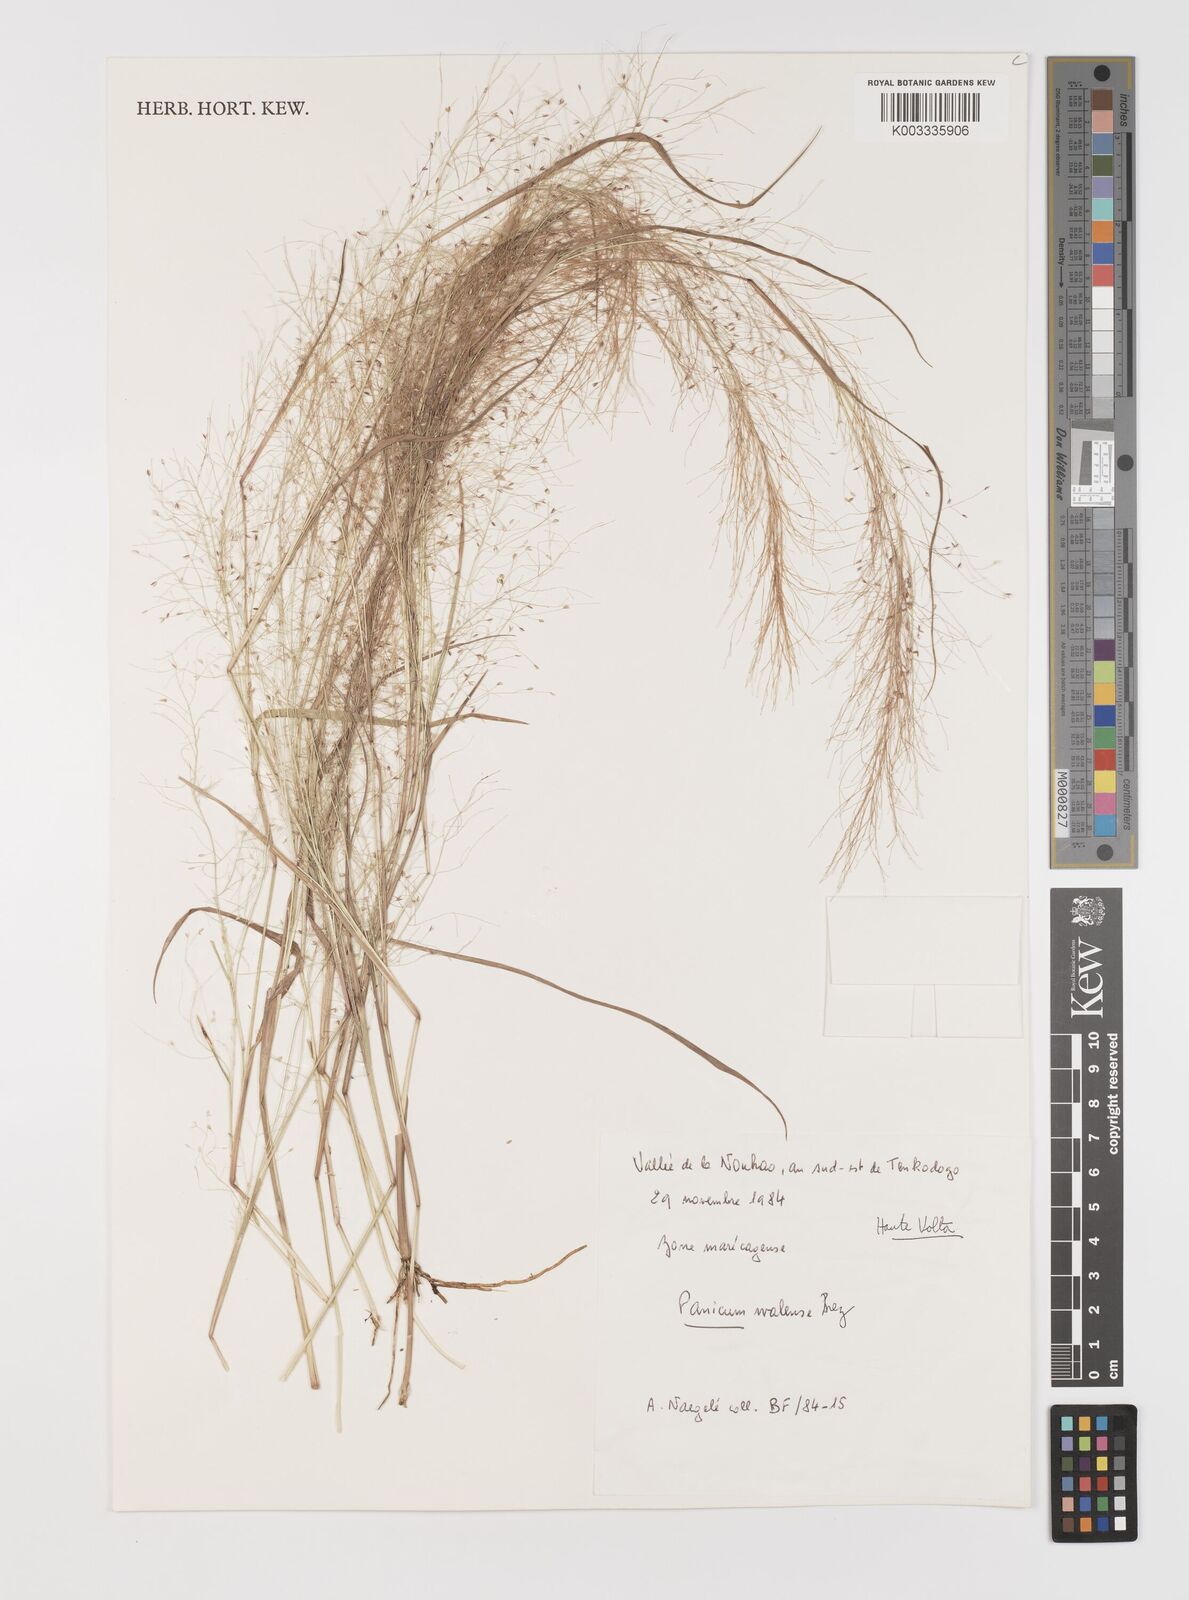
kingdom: Plantae
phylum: Tracheophyta
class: Liliopsida
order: Poales
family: Poaceae
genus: Panicum
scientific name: Panicum humile
